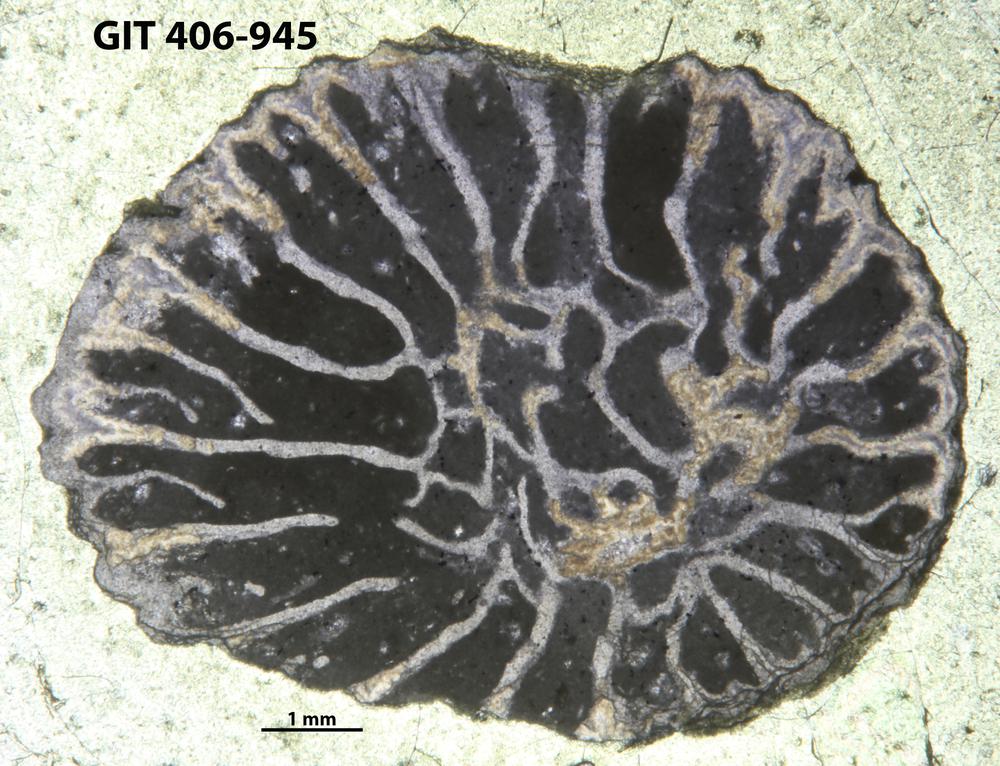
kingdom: Animalia
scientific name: Animalia
